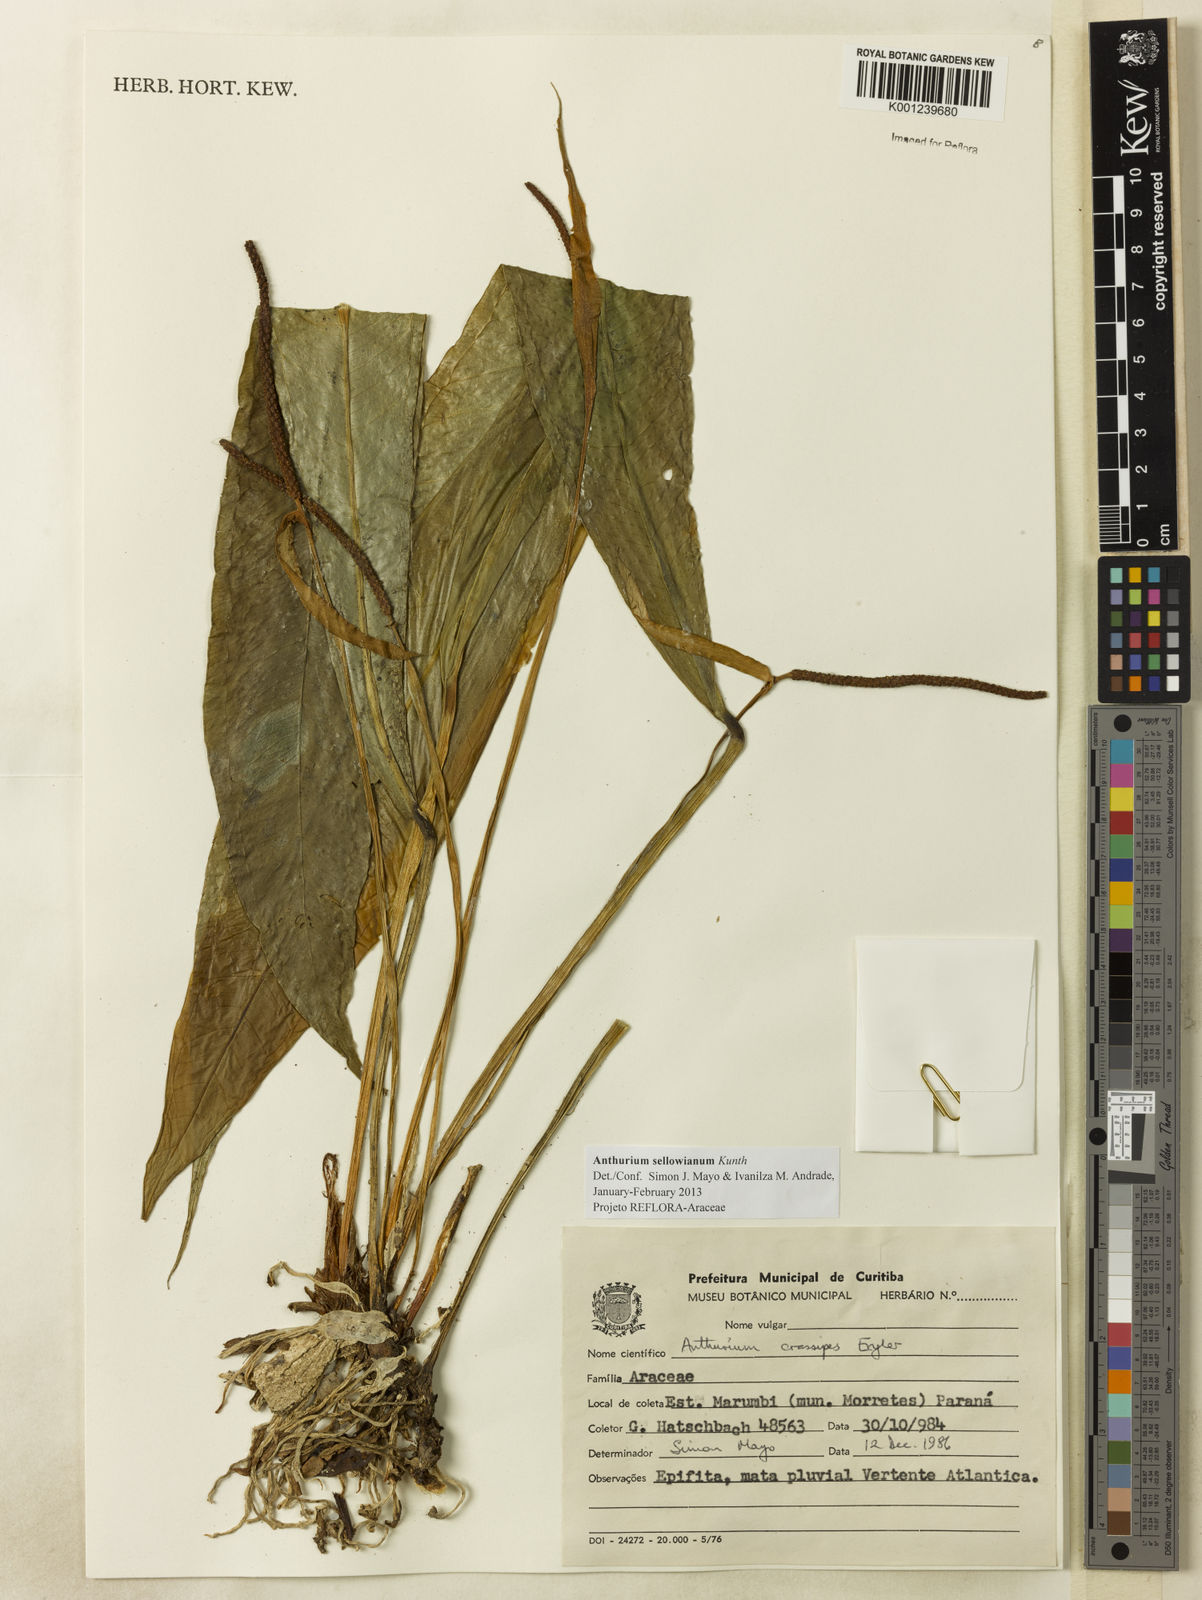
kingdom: Plantae
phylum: Tracheophyta
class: Liliopsida
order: Alismatales
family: Araceae
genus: Anthurium
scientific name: Anthurium sellowianum
